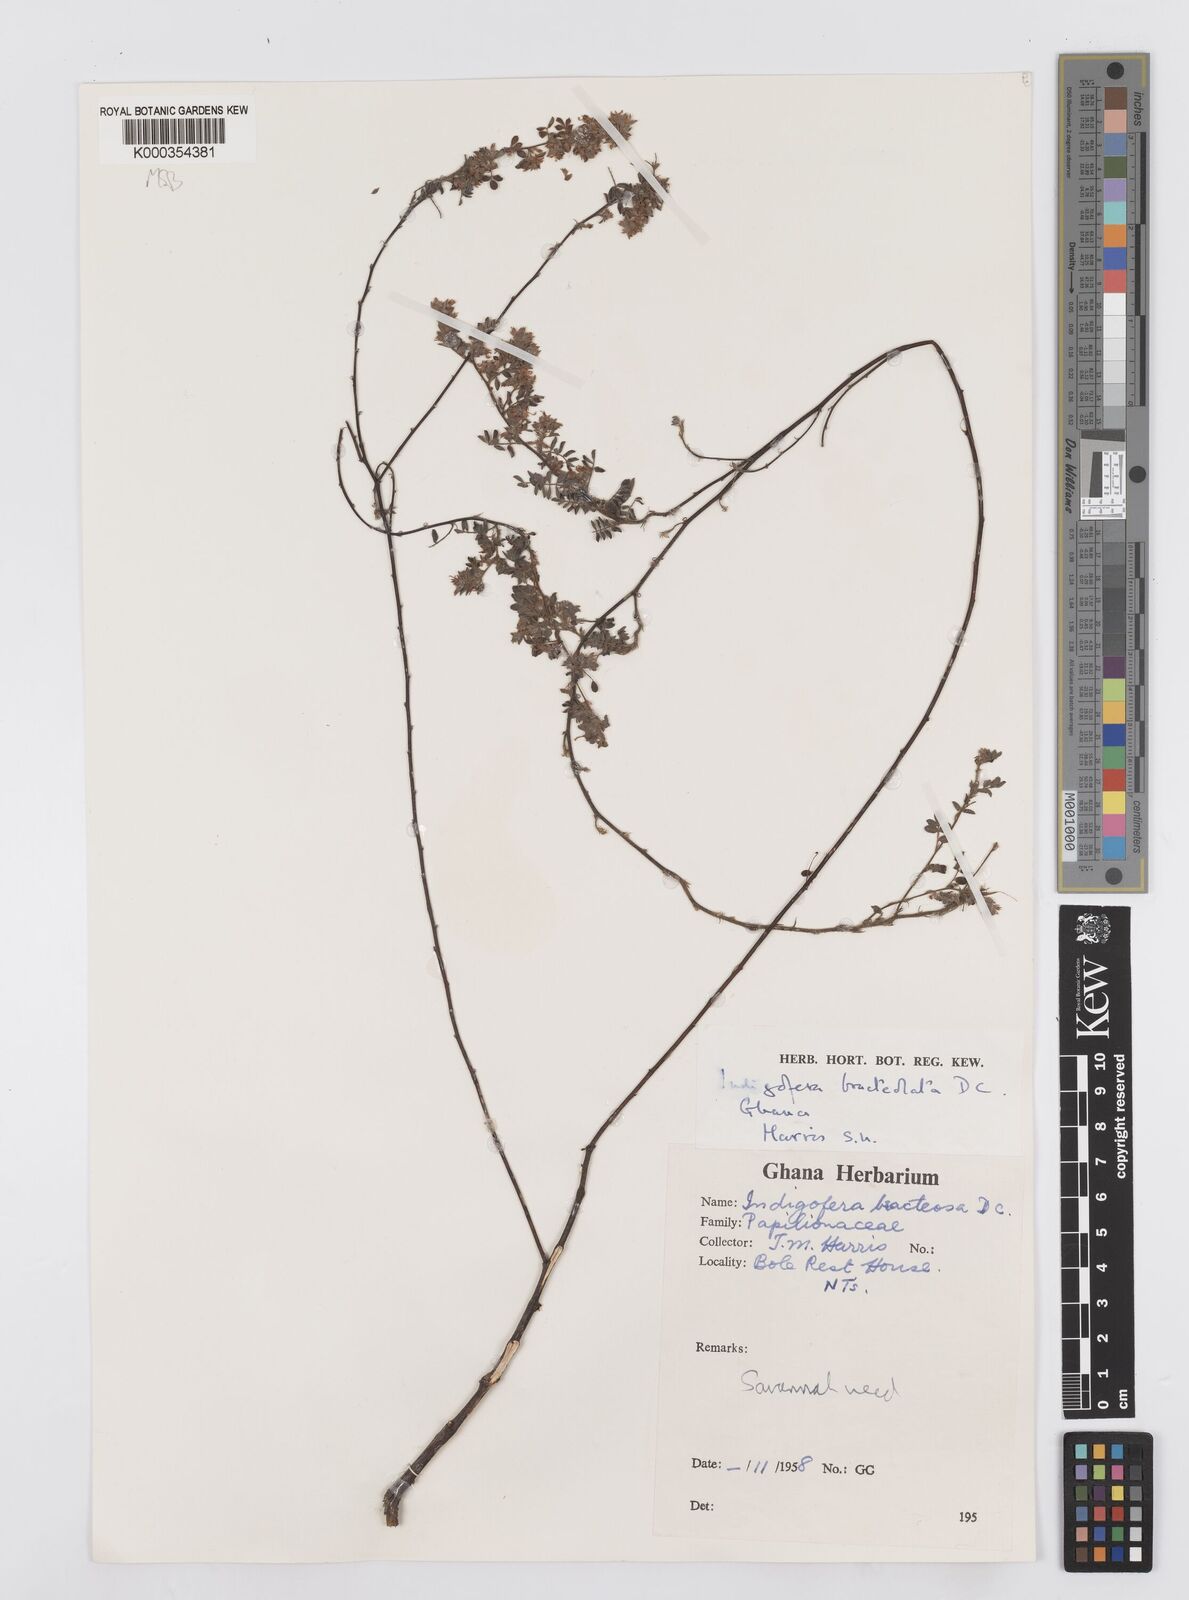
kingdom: Plantae
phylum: Tracheophyta
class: Magnoliopsida
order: Fabales
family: Fabaceae
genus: Indigofera
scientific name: Indigofera bracteolata
